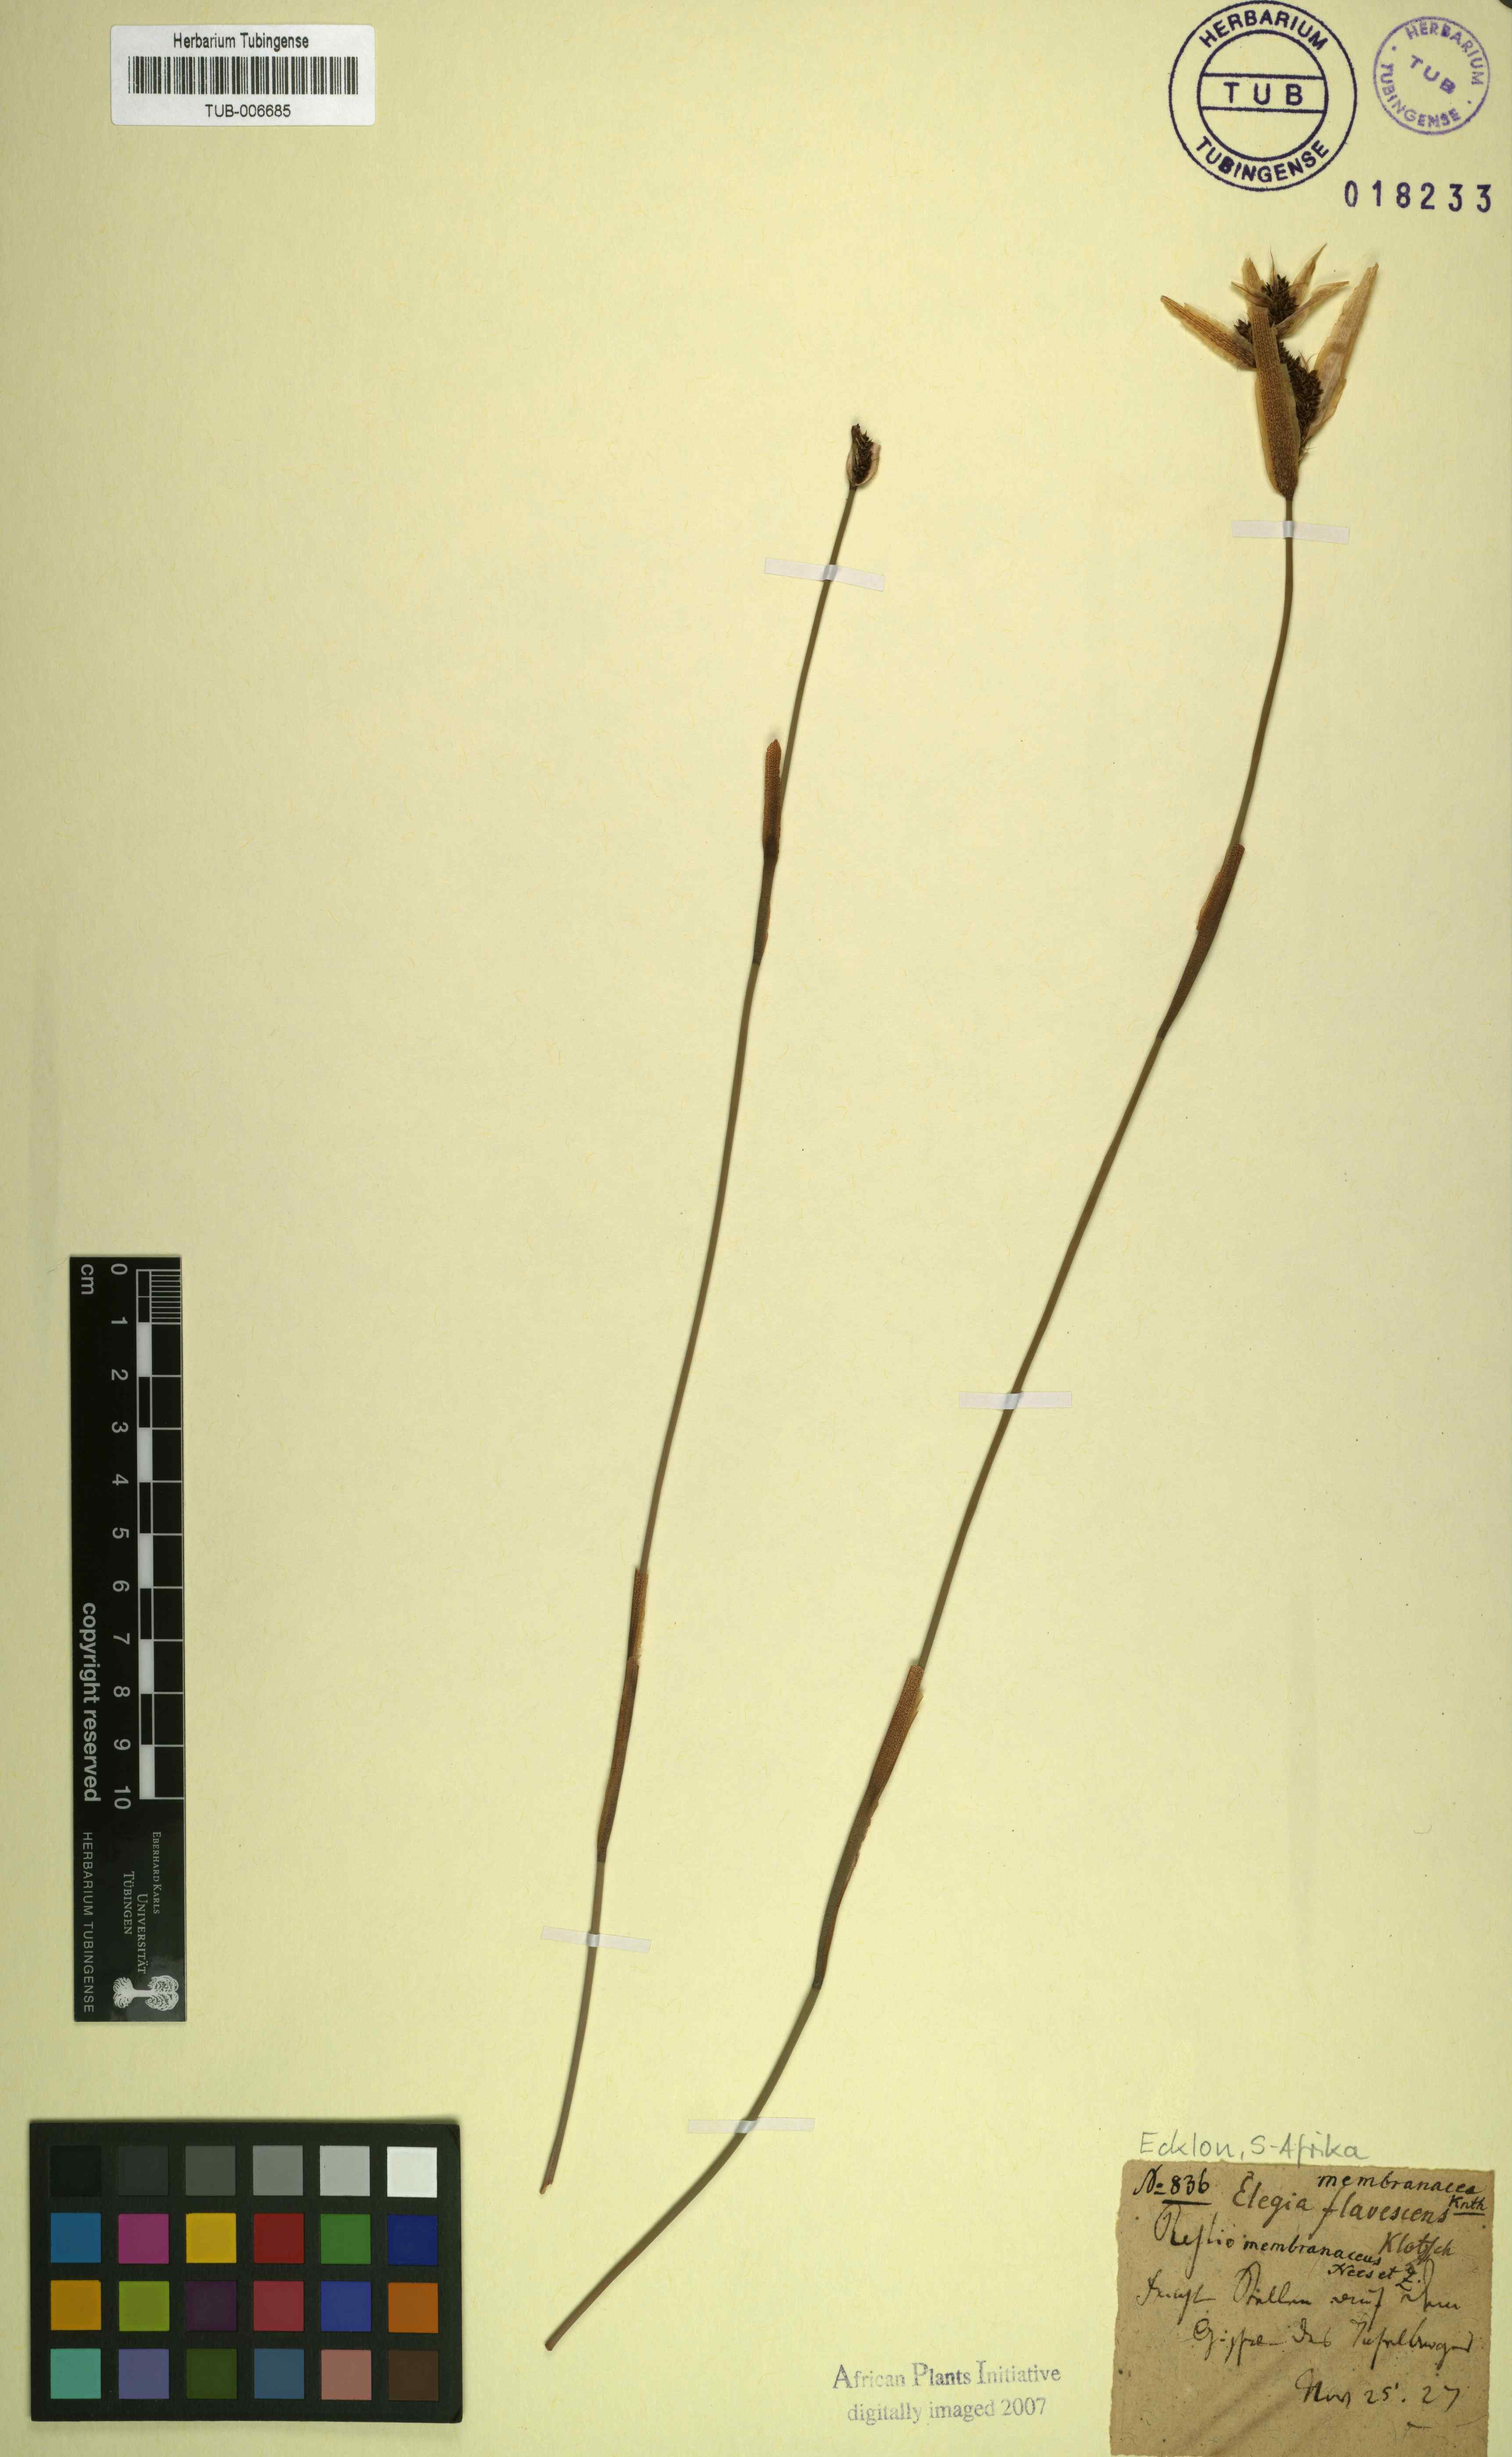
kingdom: Plantae
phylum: Tracheophyta
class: Liliopsida
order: Poales
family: Restionaceae
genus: Elegia
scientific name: Elegia juncea
